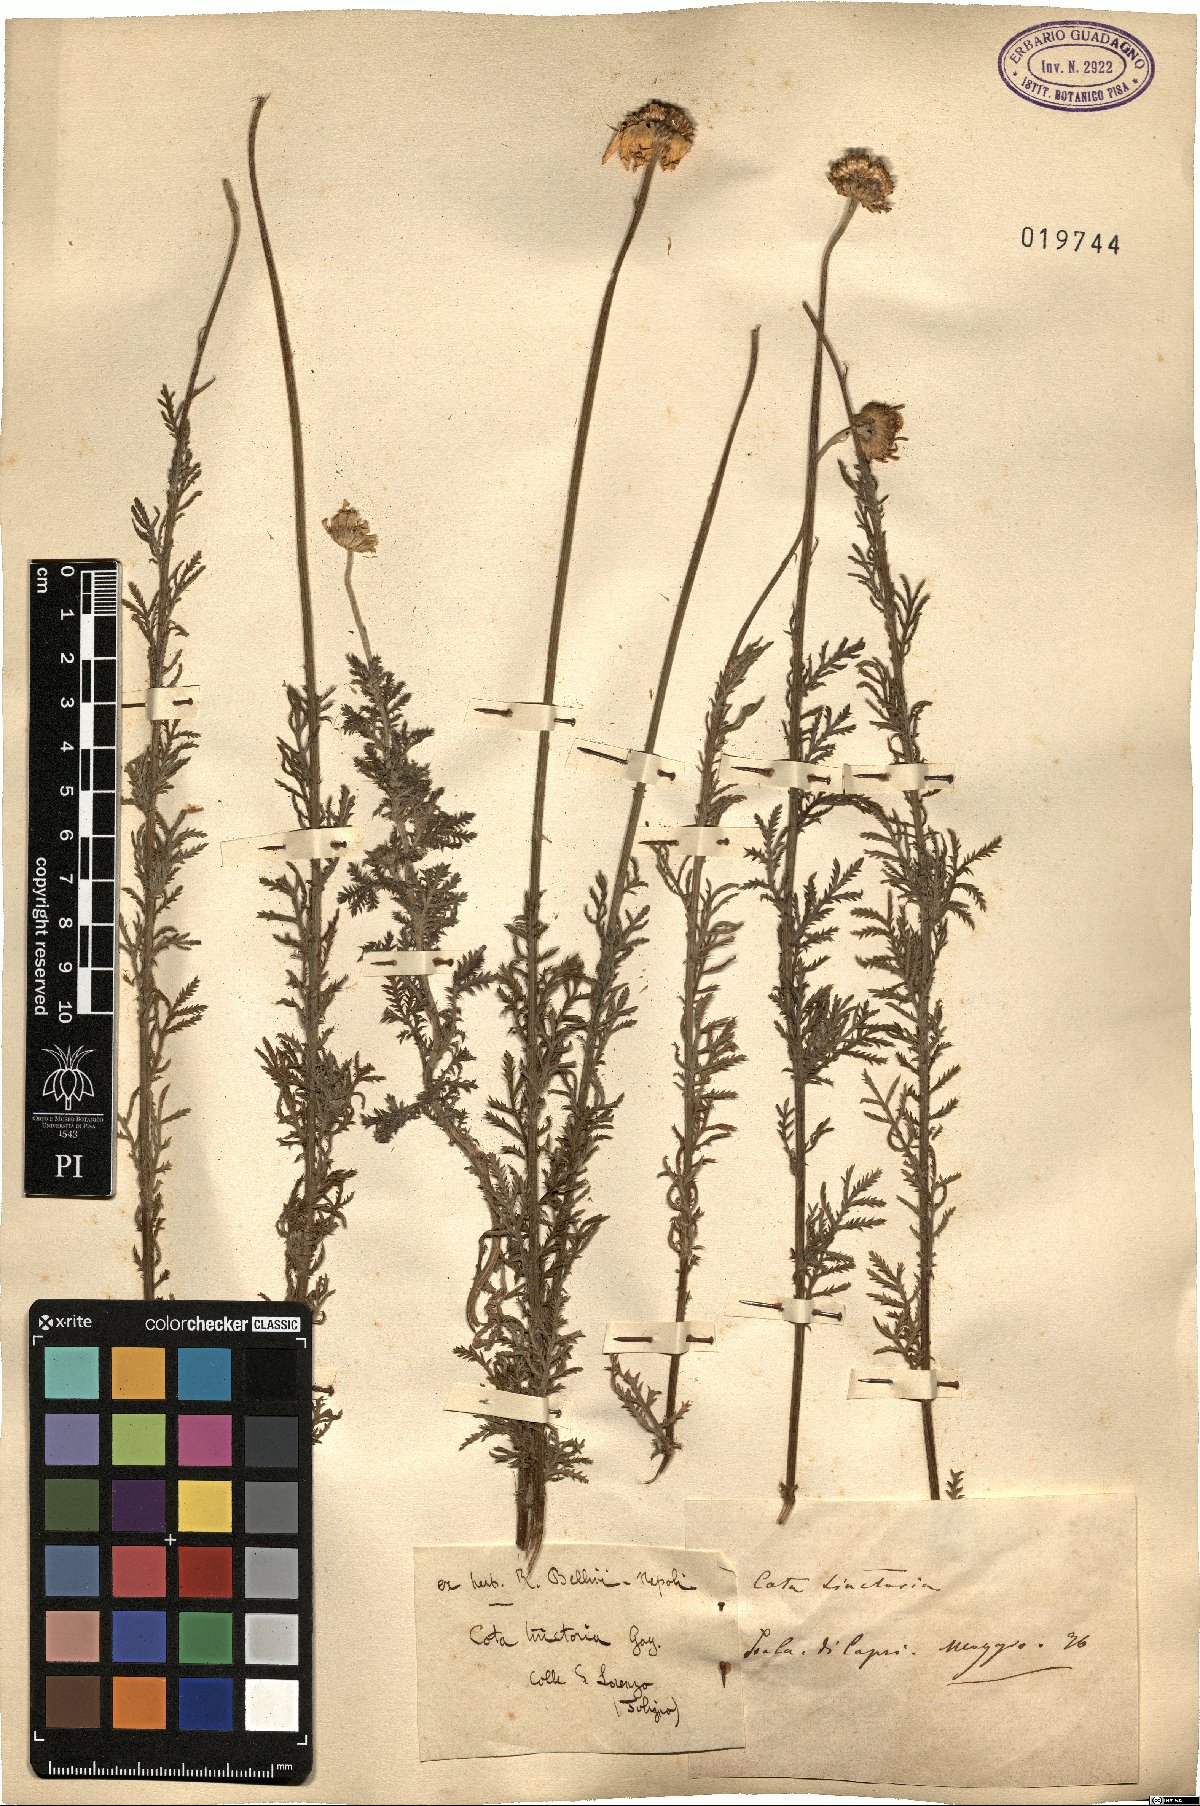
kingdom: Plantae
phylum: Tracheophyta
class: Magnoliopsida
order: Asterales
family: Asteraceae
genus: Cota
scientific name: Cota tinctoria
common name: Golden chamomile
